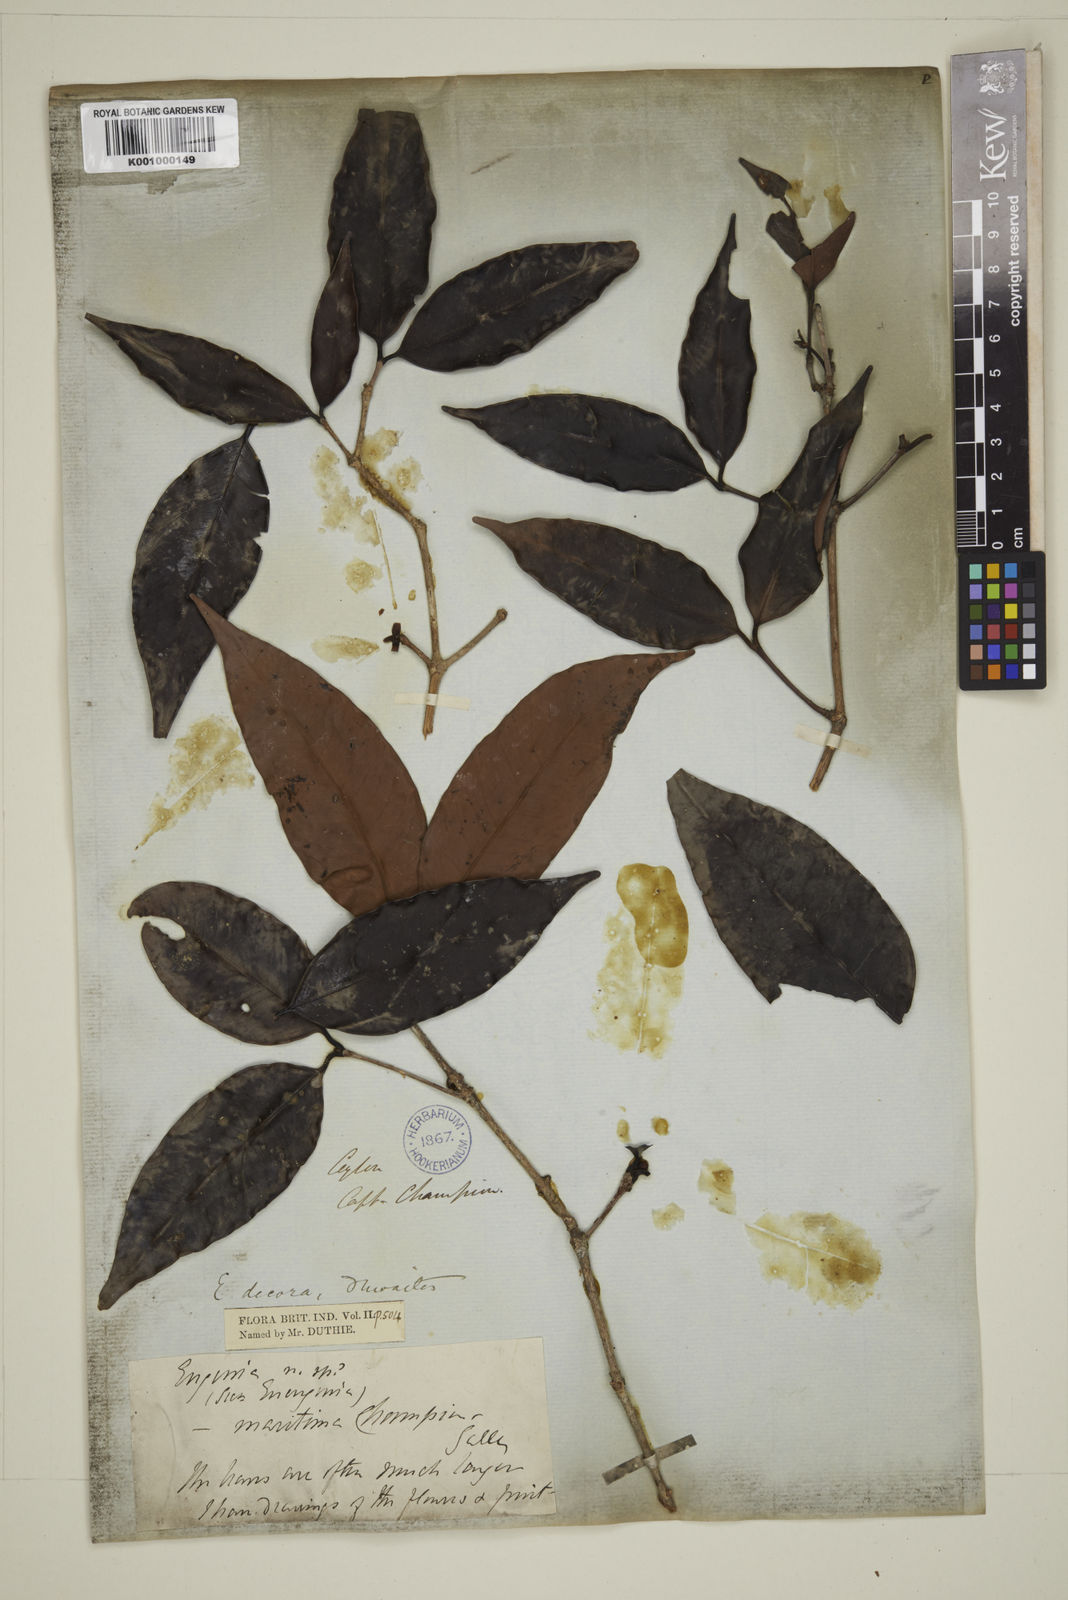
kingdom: Plantae
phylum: Tracheophyta
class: Magnoliopsida
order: Myrtales
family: Myrtaceae
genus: Eugenia
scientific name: Eugenia glabra
